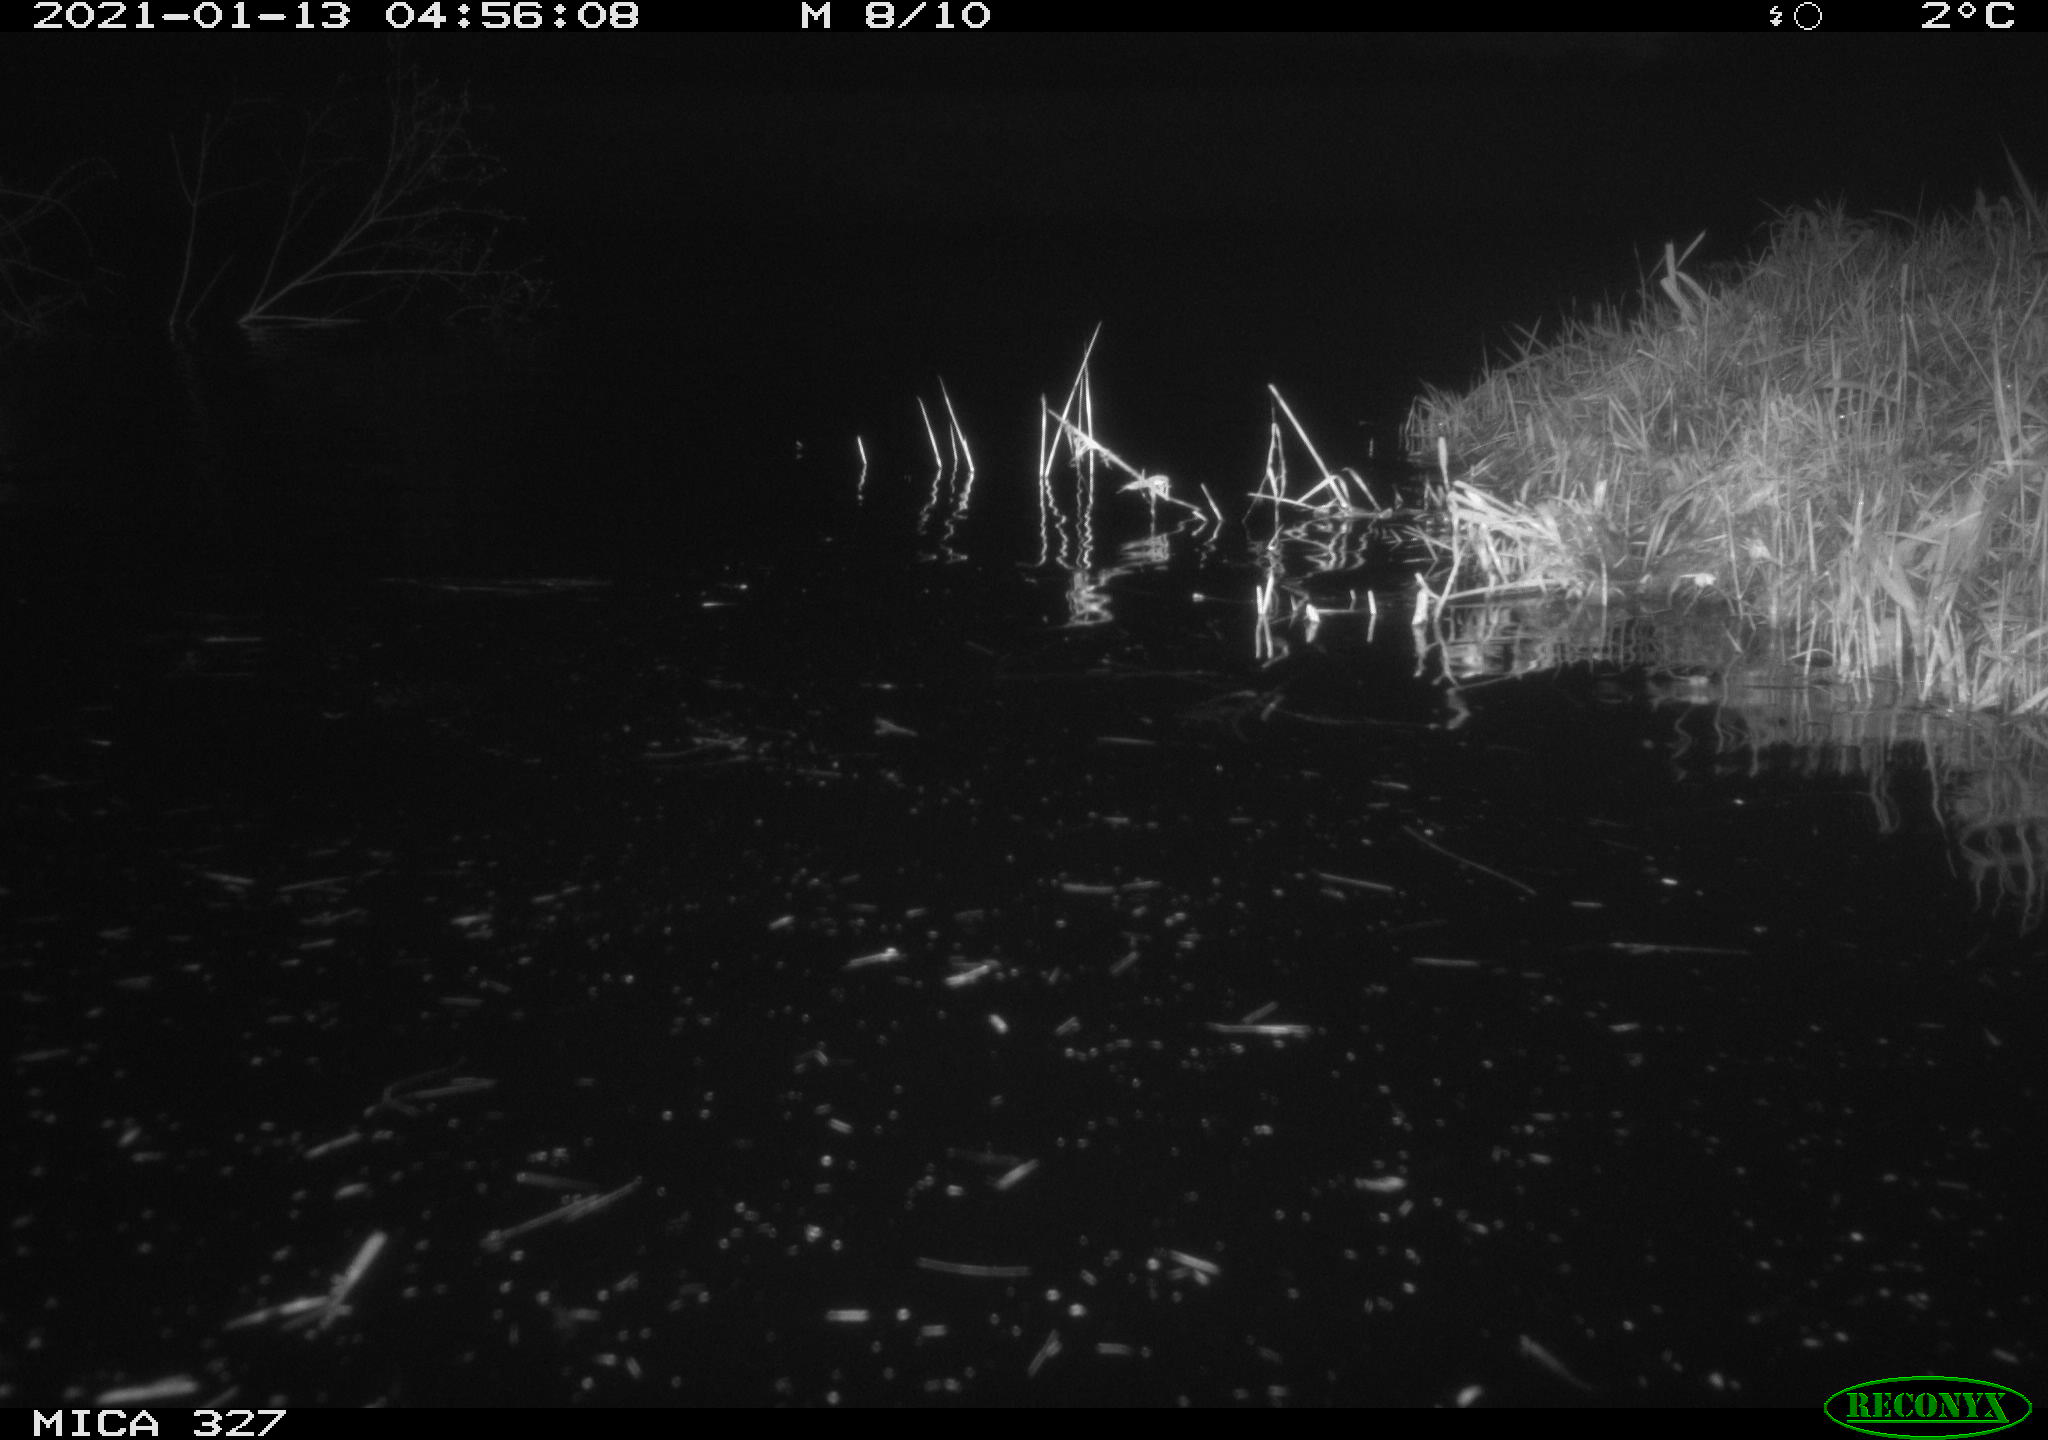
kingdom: Animalia
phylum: Chordata
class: Mammalia
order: Rodentia
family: Cricetidae
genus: Ondatra
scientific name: Ondatra zibethicus
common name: Muskrat
